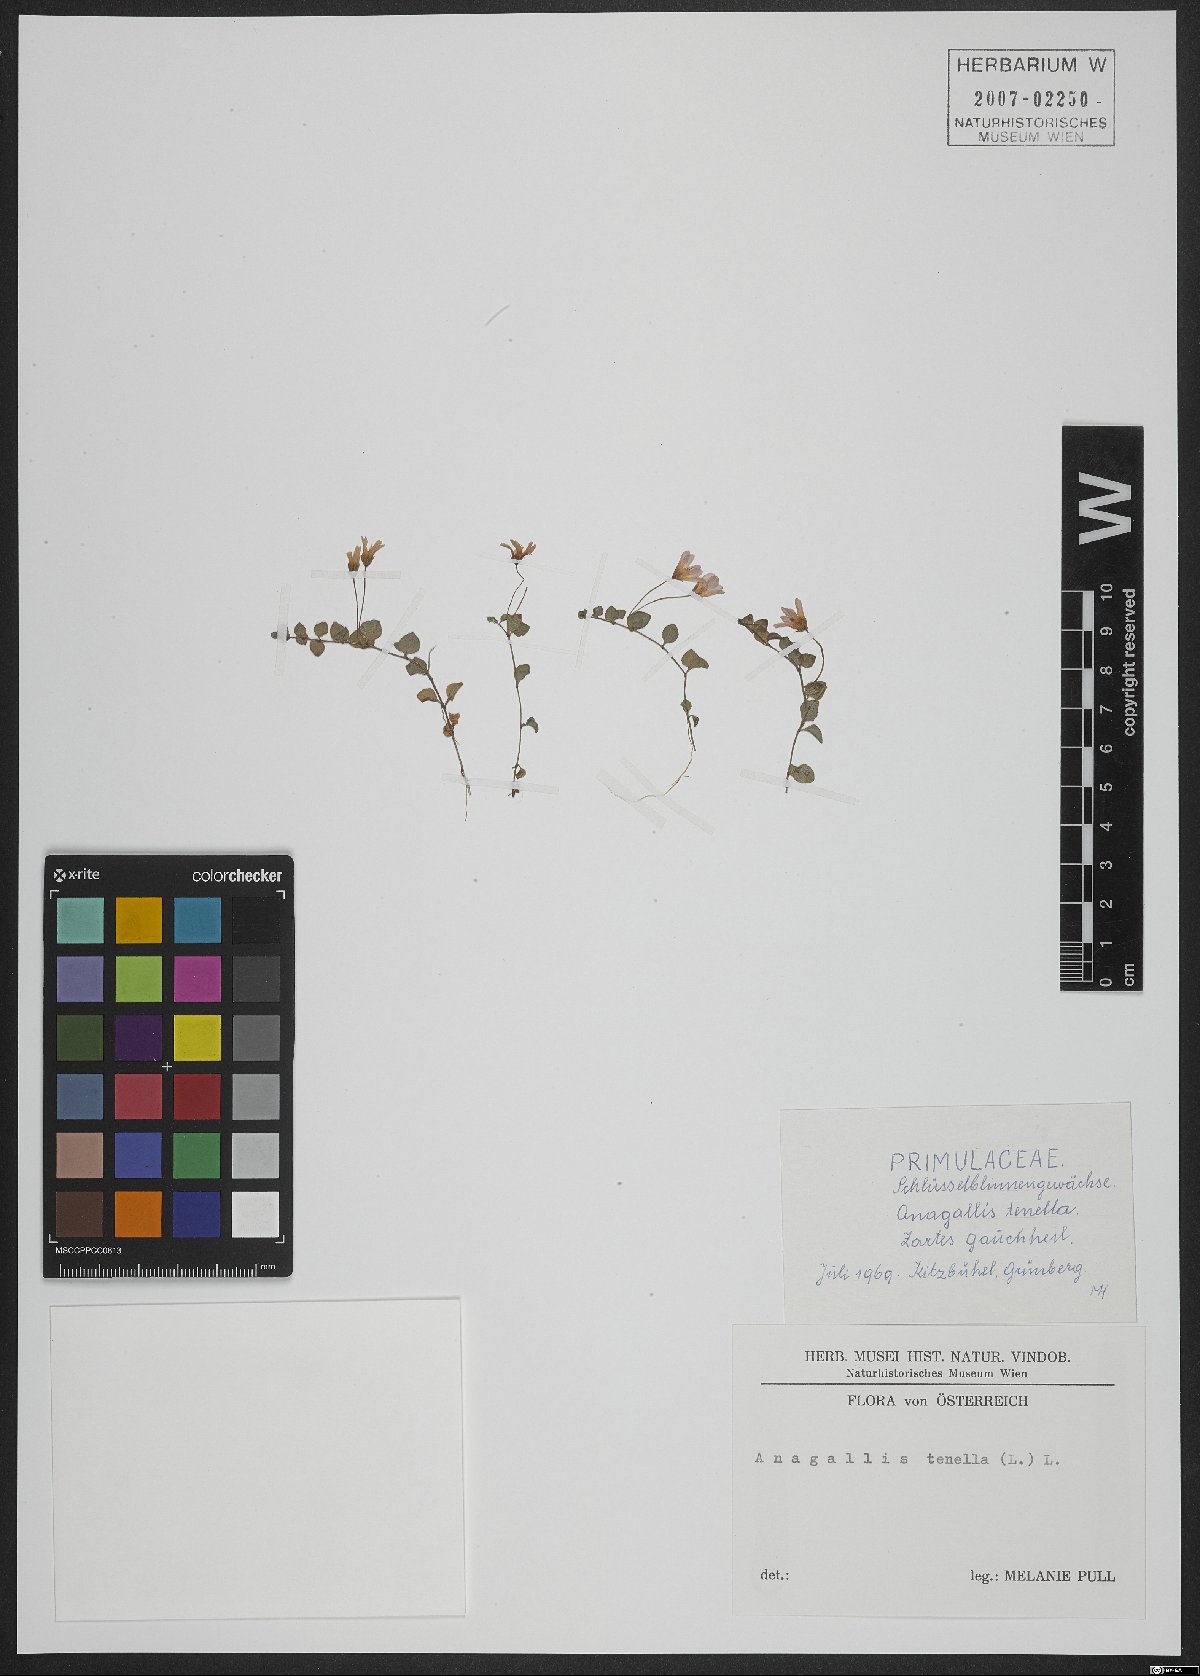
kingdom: Plantae
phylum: Tracheophyta
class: Magnoliopsida
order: Ericales
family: Primulaceae
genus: Lysimachia
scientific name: Lysimachia tenella
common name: European bog pimpernel
